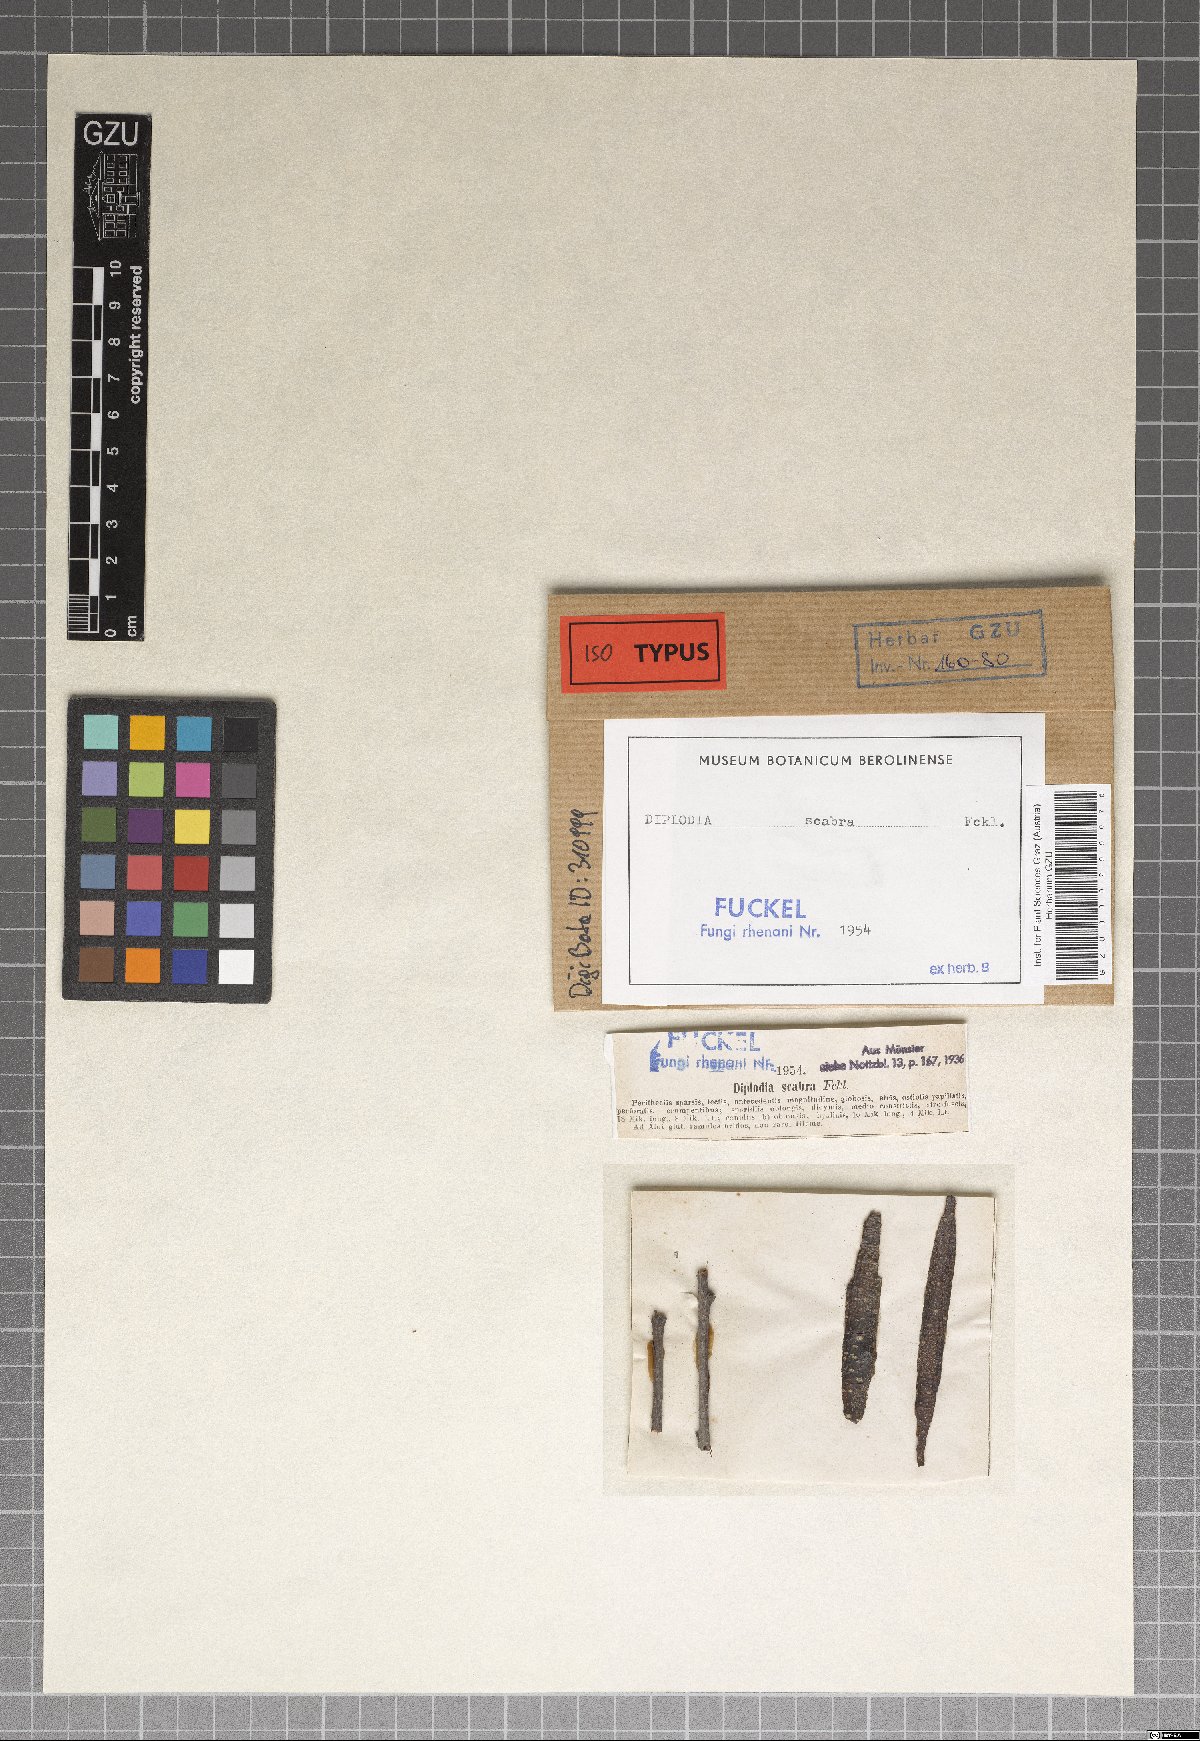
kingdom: Fungi
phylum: Ascomycota
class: Dothideomycetes
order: Botryosphaeriales
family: Botryosphaeriaceae
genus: Diplodia
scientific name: Diplodia
